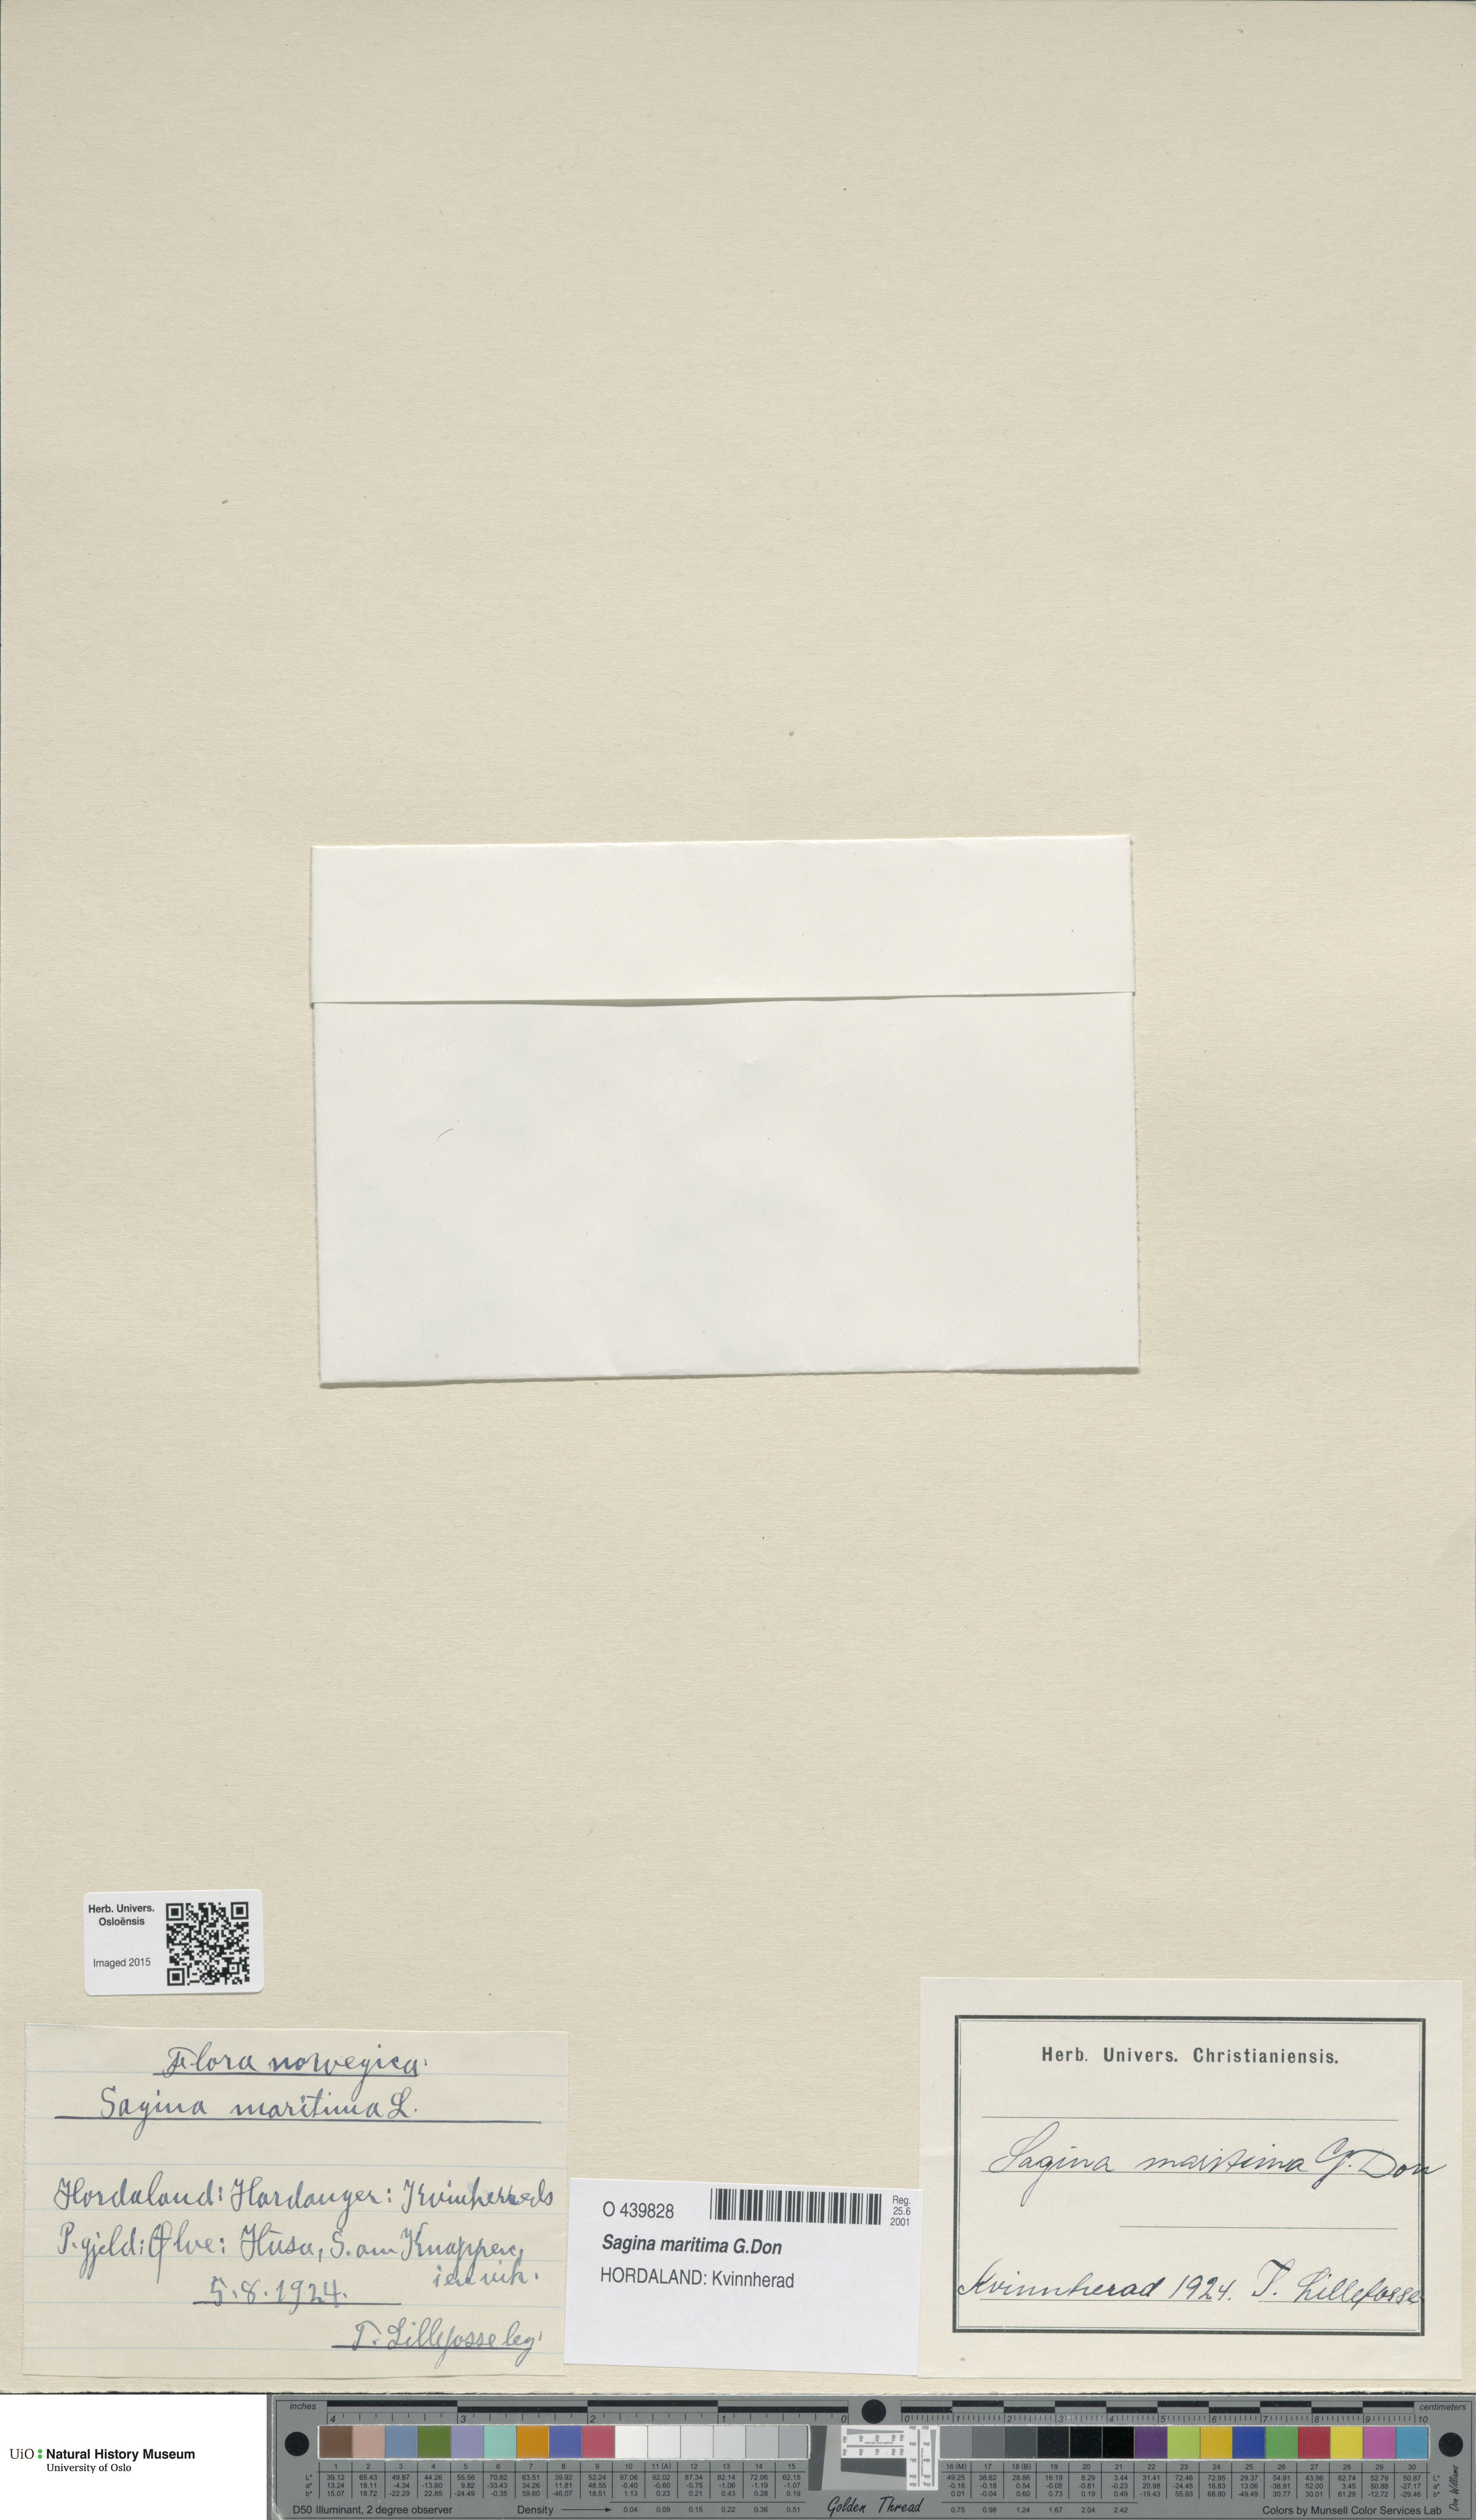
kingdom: Plantae
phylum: Tracheophyta
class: Magnoliopsida
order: Caryophyllales
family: Caryophyllaceae
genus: Sagina
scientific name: Sagina maritima
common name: Sea pearlwort
